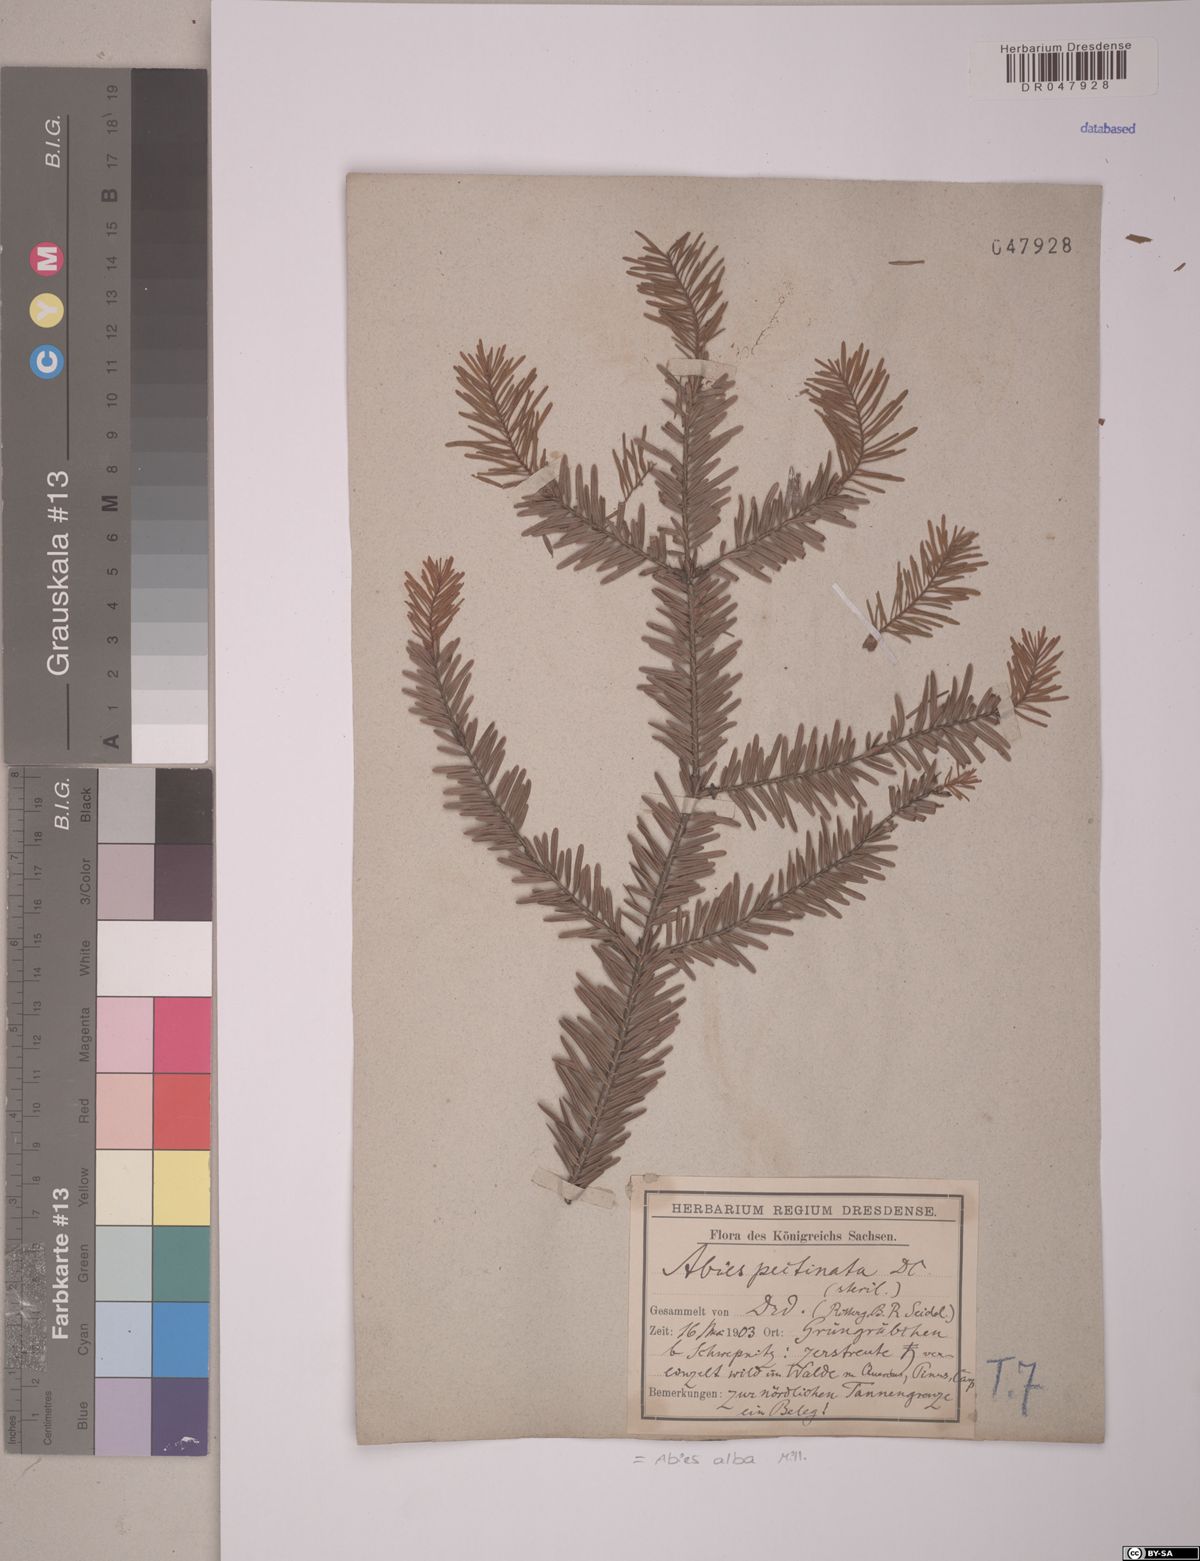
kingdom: Plantae
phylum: Tracheophyta
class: Pinopsida
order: Pinales
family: Pinaceae
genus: Abies
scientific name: Abies alba
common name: Silver fir
